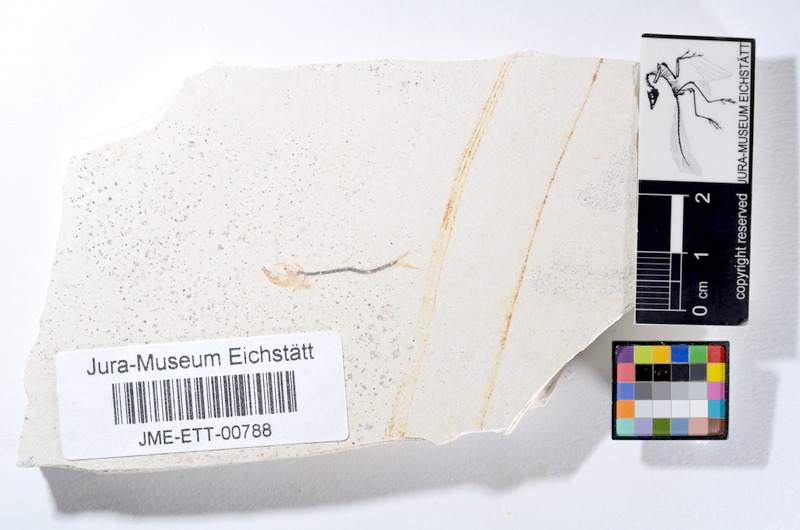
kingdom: Animalia
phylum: Chordata
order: Salmoniformes
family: Orthogonikleithridae
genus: Orthogonikleithrus
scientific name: Orthogonikleithrus hoelli
